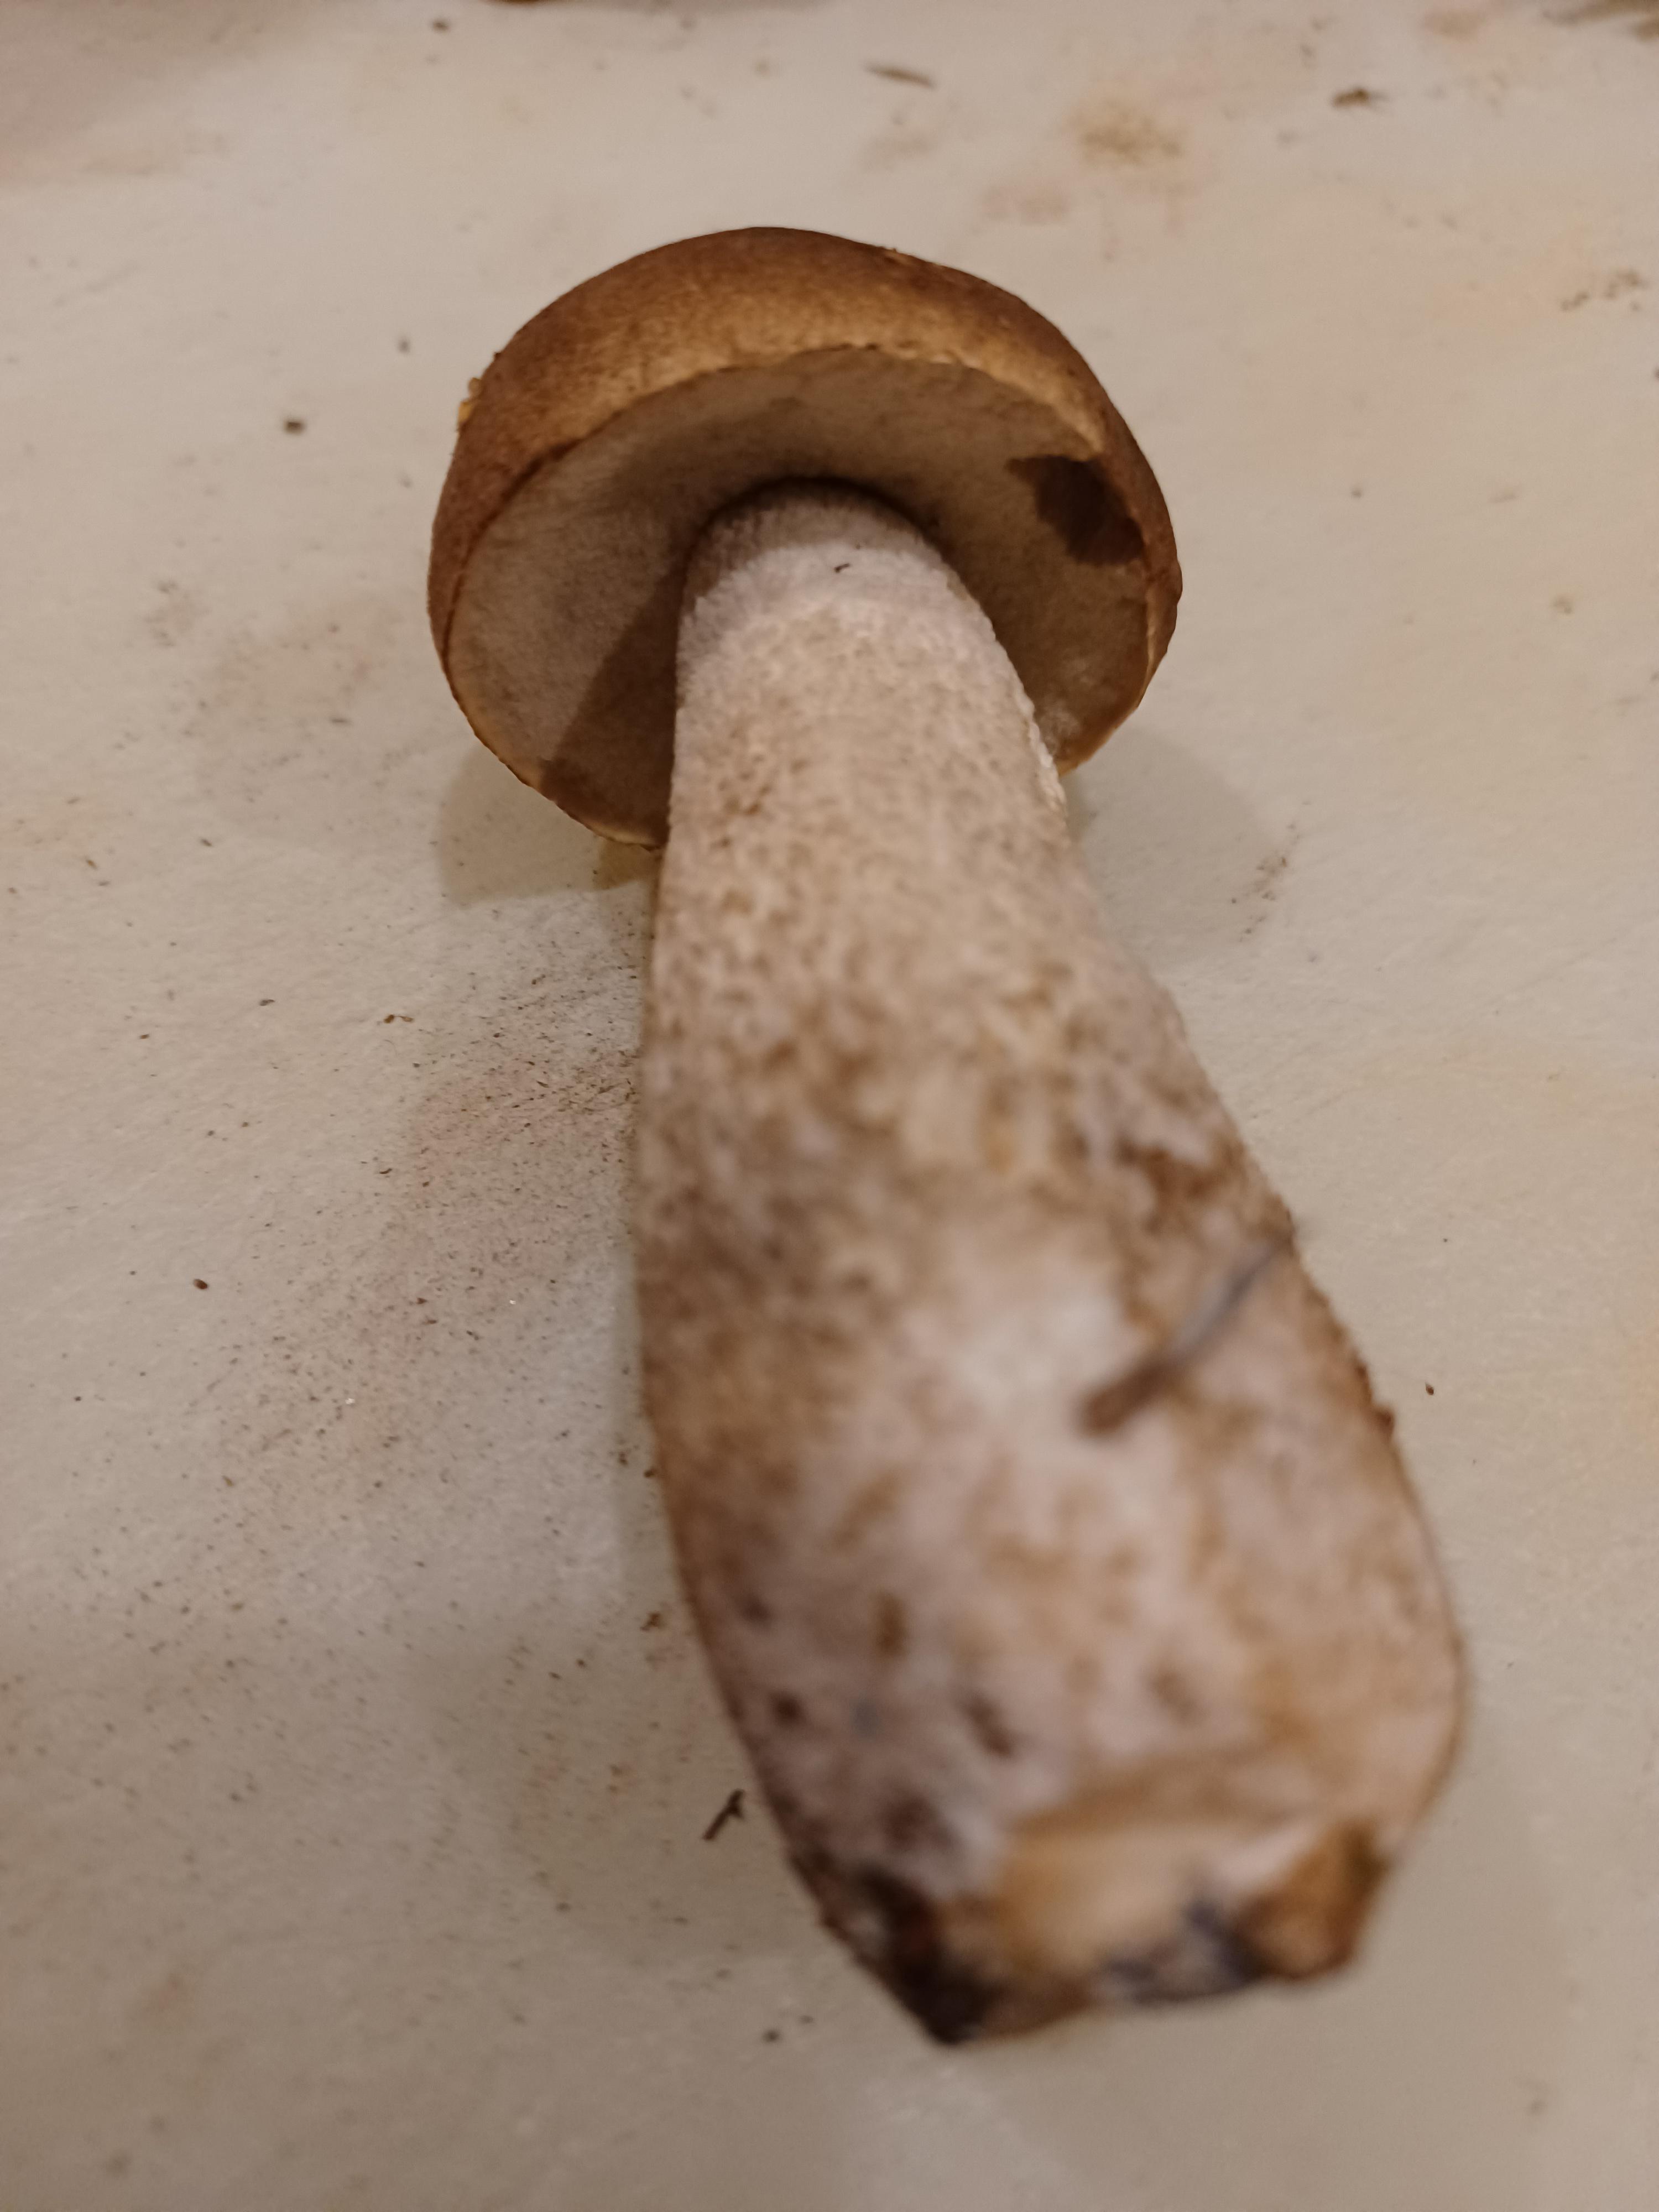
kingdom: Fungi
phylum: Basidiomycota
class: Agaricomycetes
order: Boletales
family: Boletaceae
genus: Leccinum
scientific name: Leccinum
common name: skælrørhat
